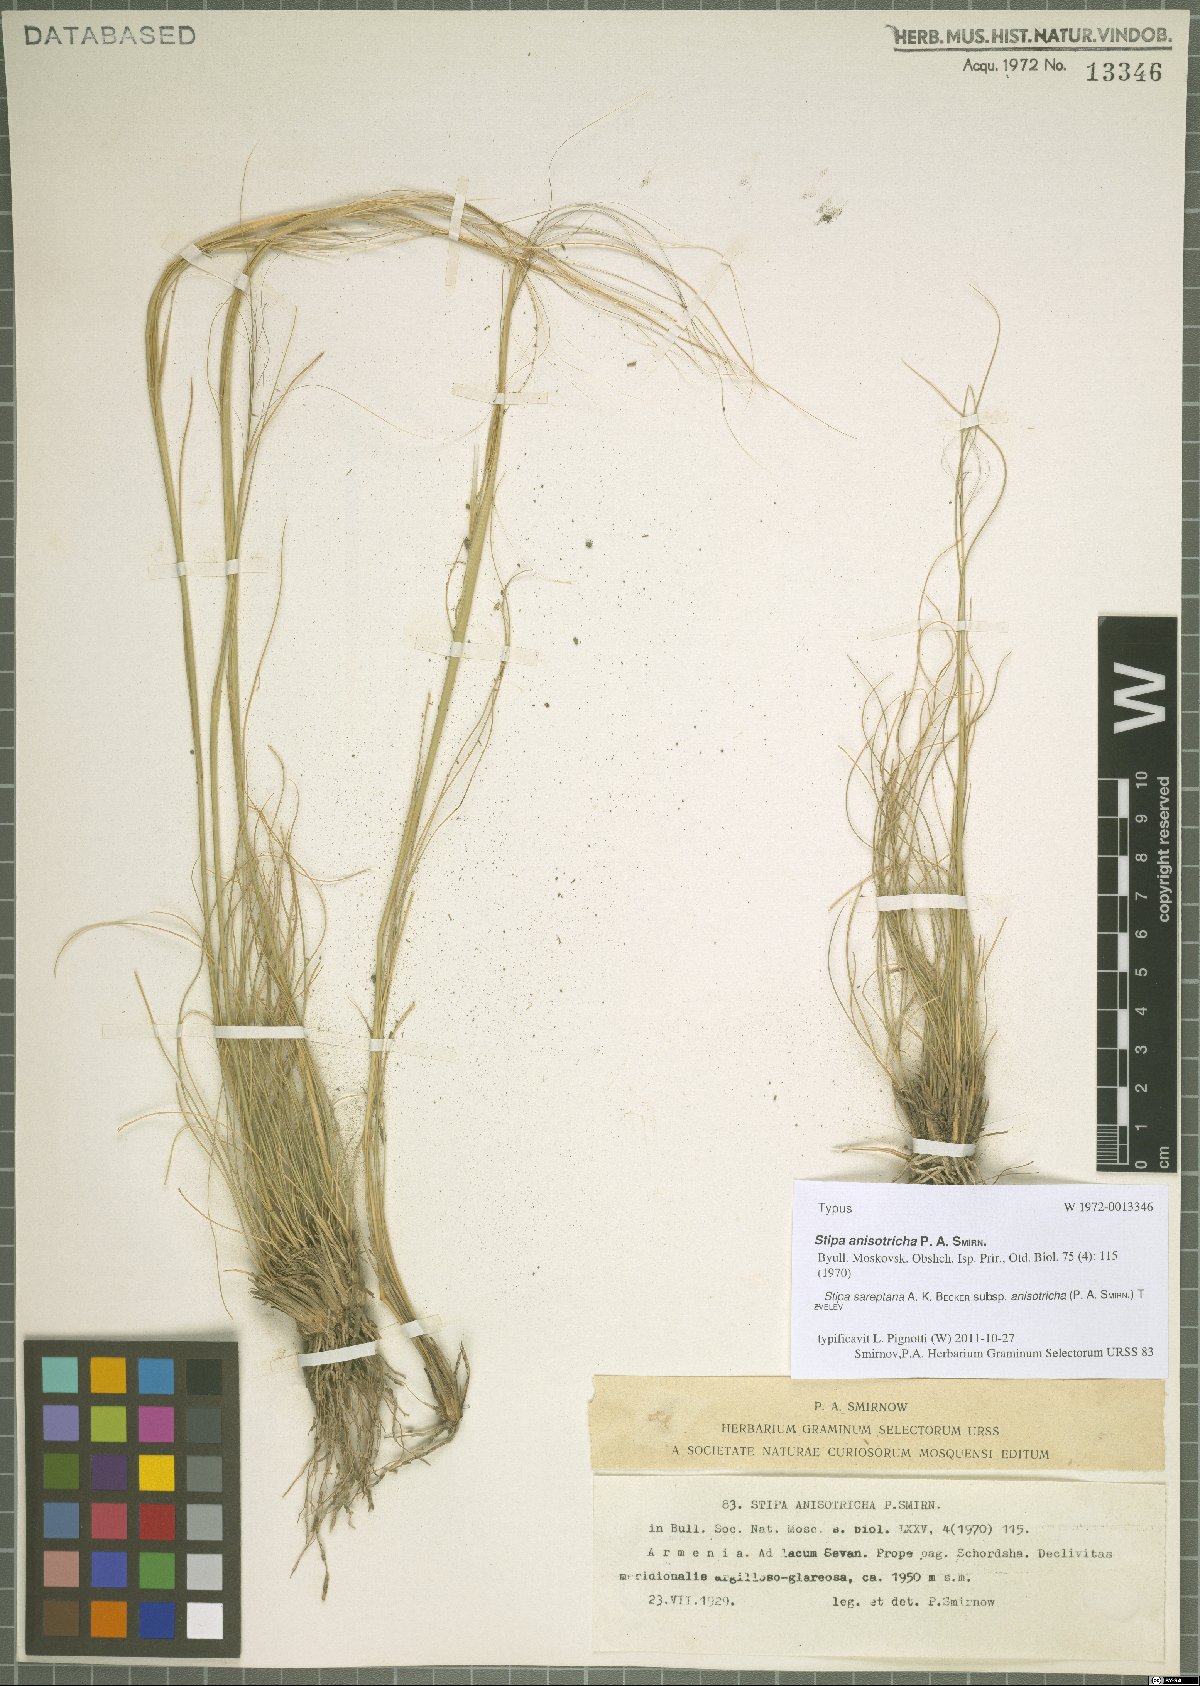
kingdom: Plantae
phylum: Tracheophyta
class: Liliopsida
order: Poales
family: Poaceae
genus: Stipa
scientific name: Stipa sareptana
